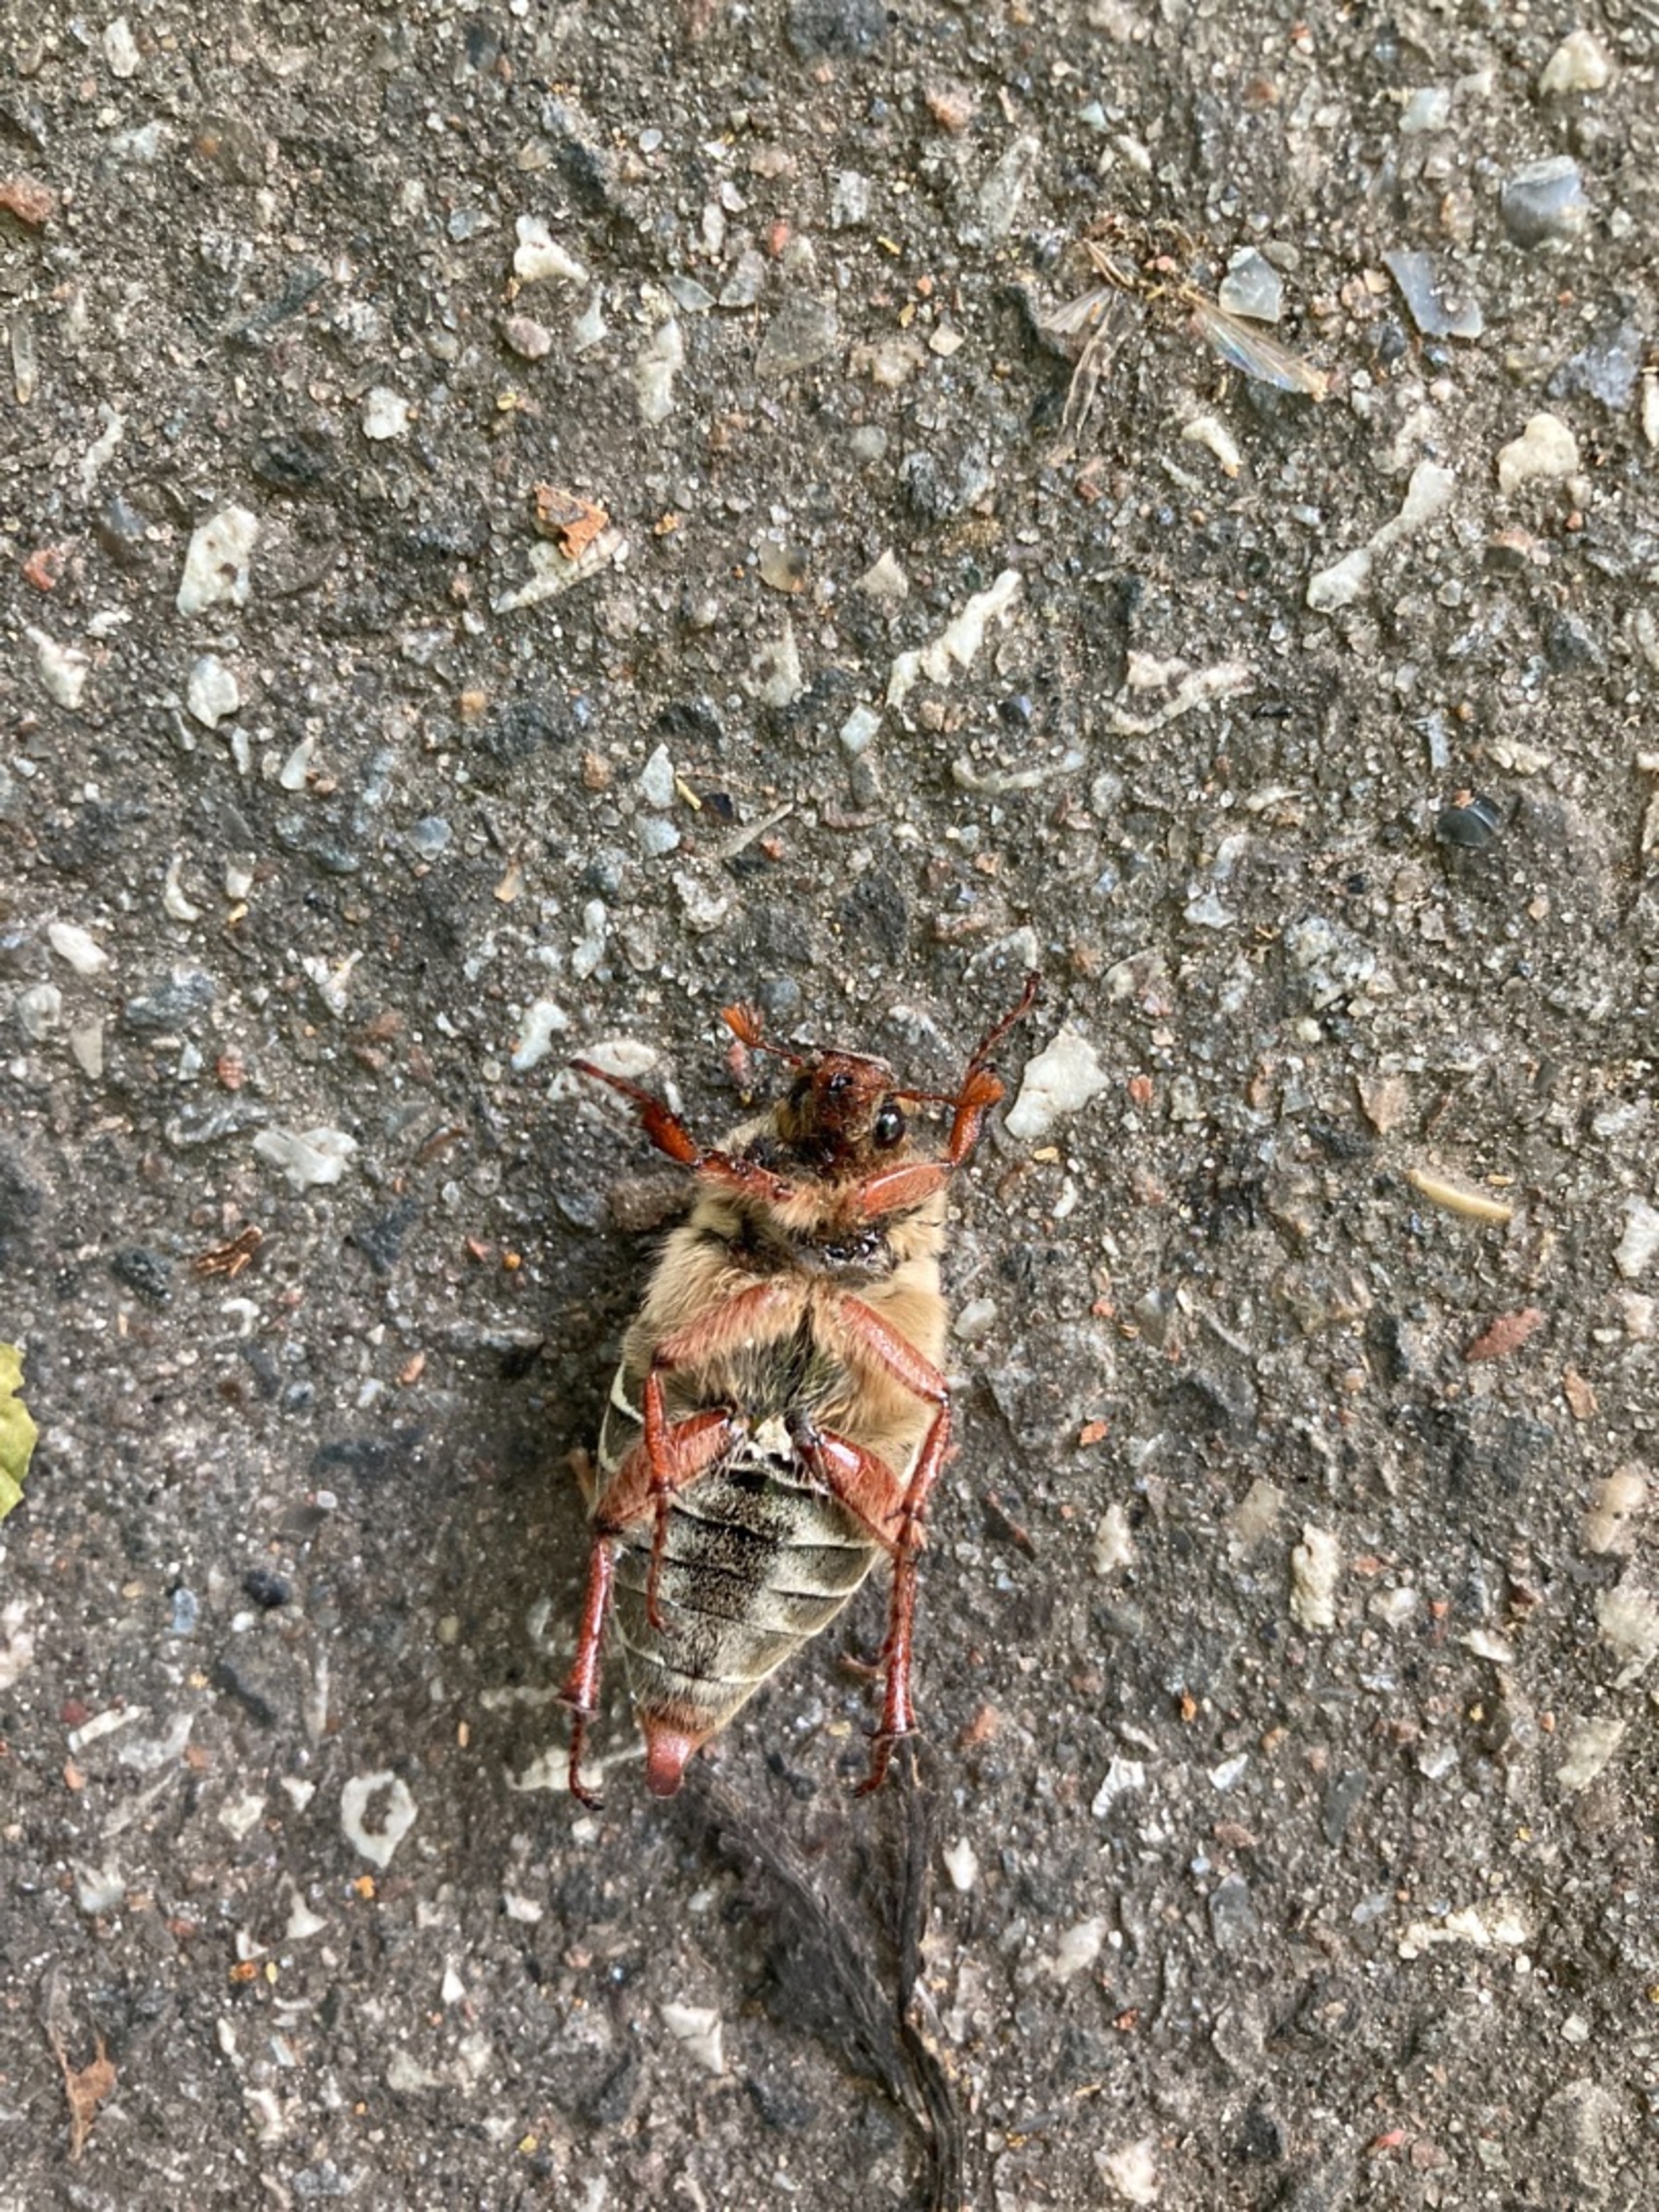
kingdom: Animalia
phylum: Arthropoda
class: Insecta
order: Coleoptera
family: Scarabaeidae
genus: Melolontha
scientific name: Melolontha melolontha
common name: Almindelig oldenborre
